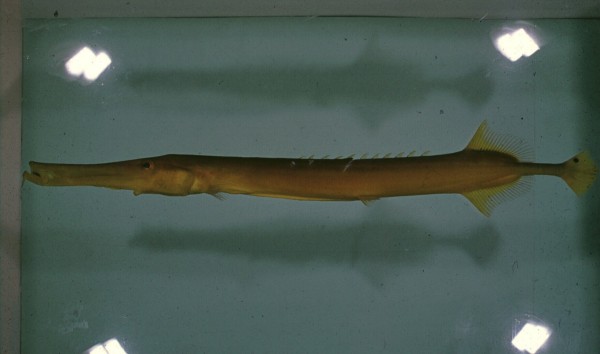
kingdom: Animalia
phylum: Chordata
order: Syngnathiformes
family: Aulostomidae
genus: Aulostomus
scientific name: Aulostomus chinensis
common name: Chinese trumpetfish
